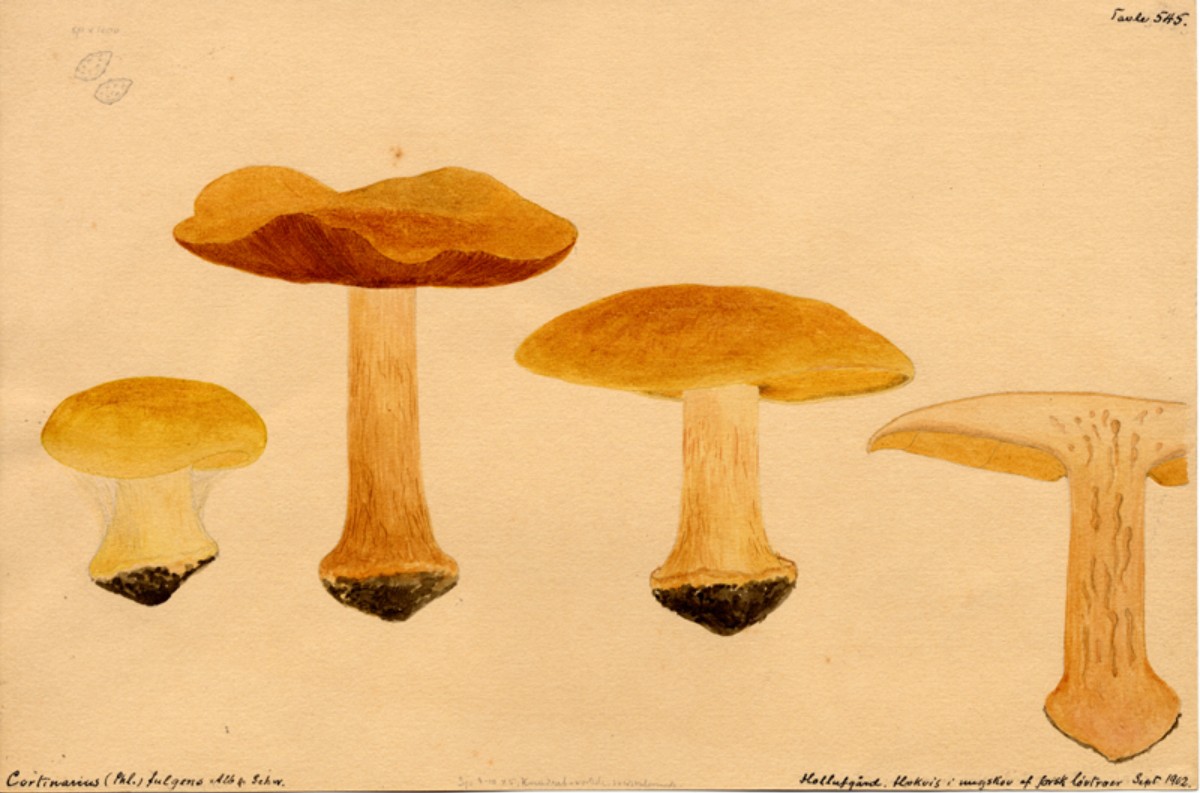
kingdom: Fungi
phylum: Basidiomycota
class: Agaricomycetes
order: Agaricales
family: Cortinariaceae
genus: Calonarius
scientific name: Calonarius olearioides
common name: safran-slørhat
